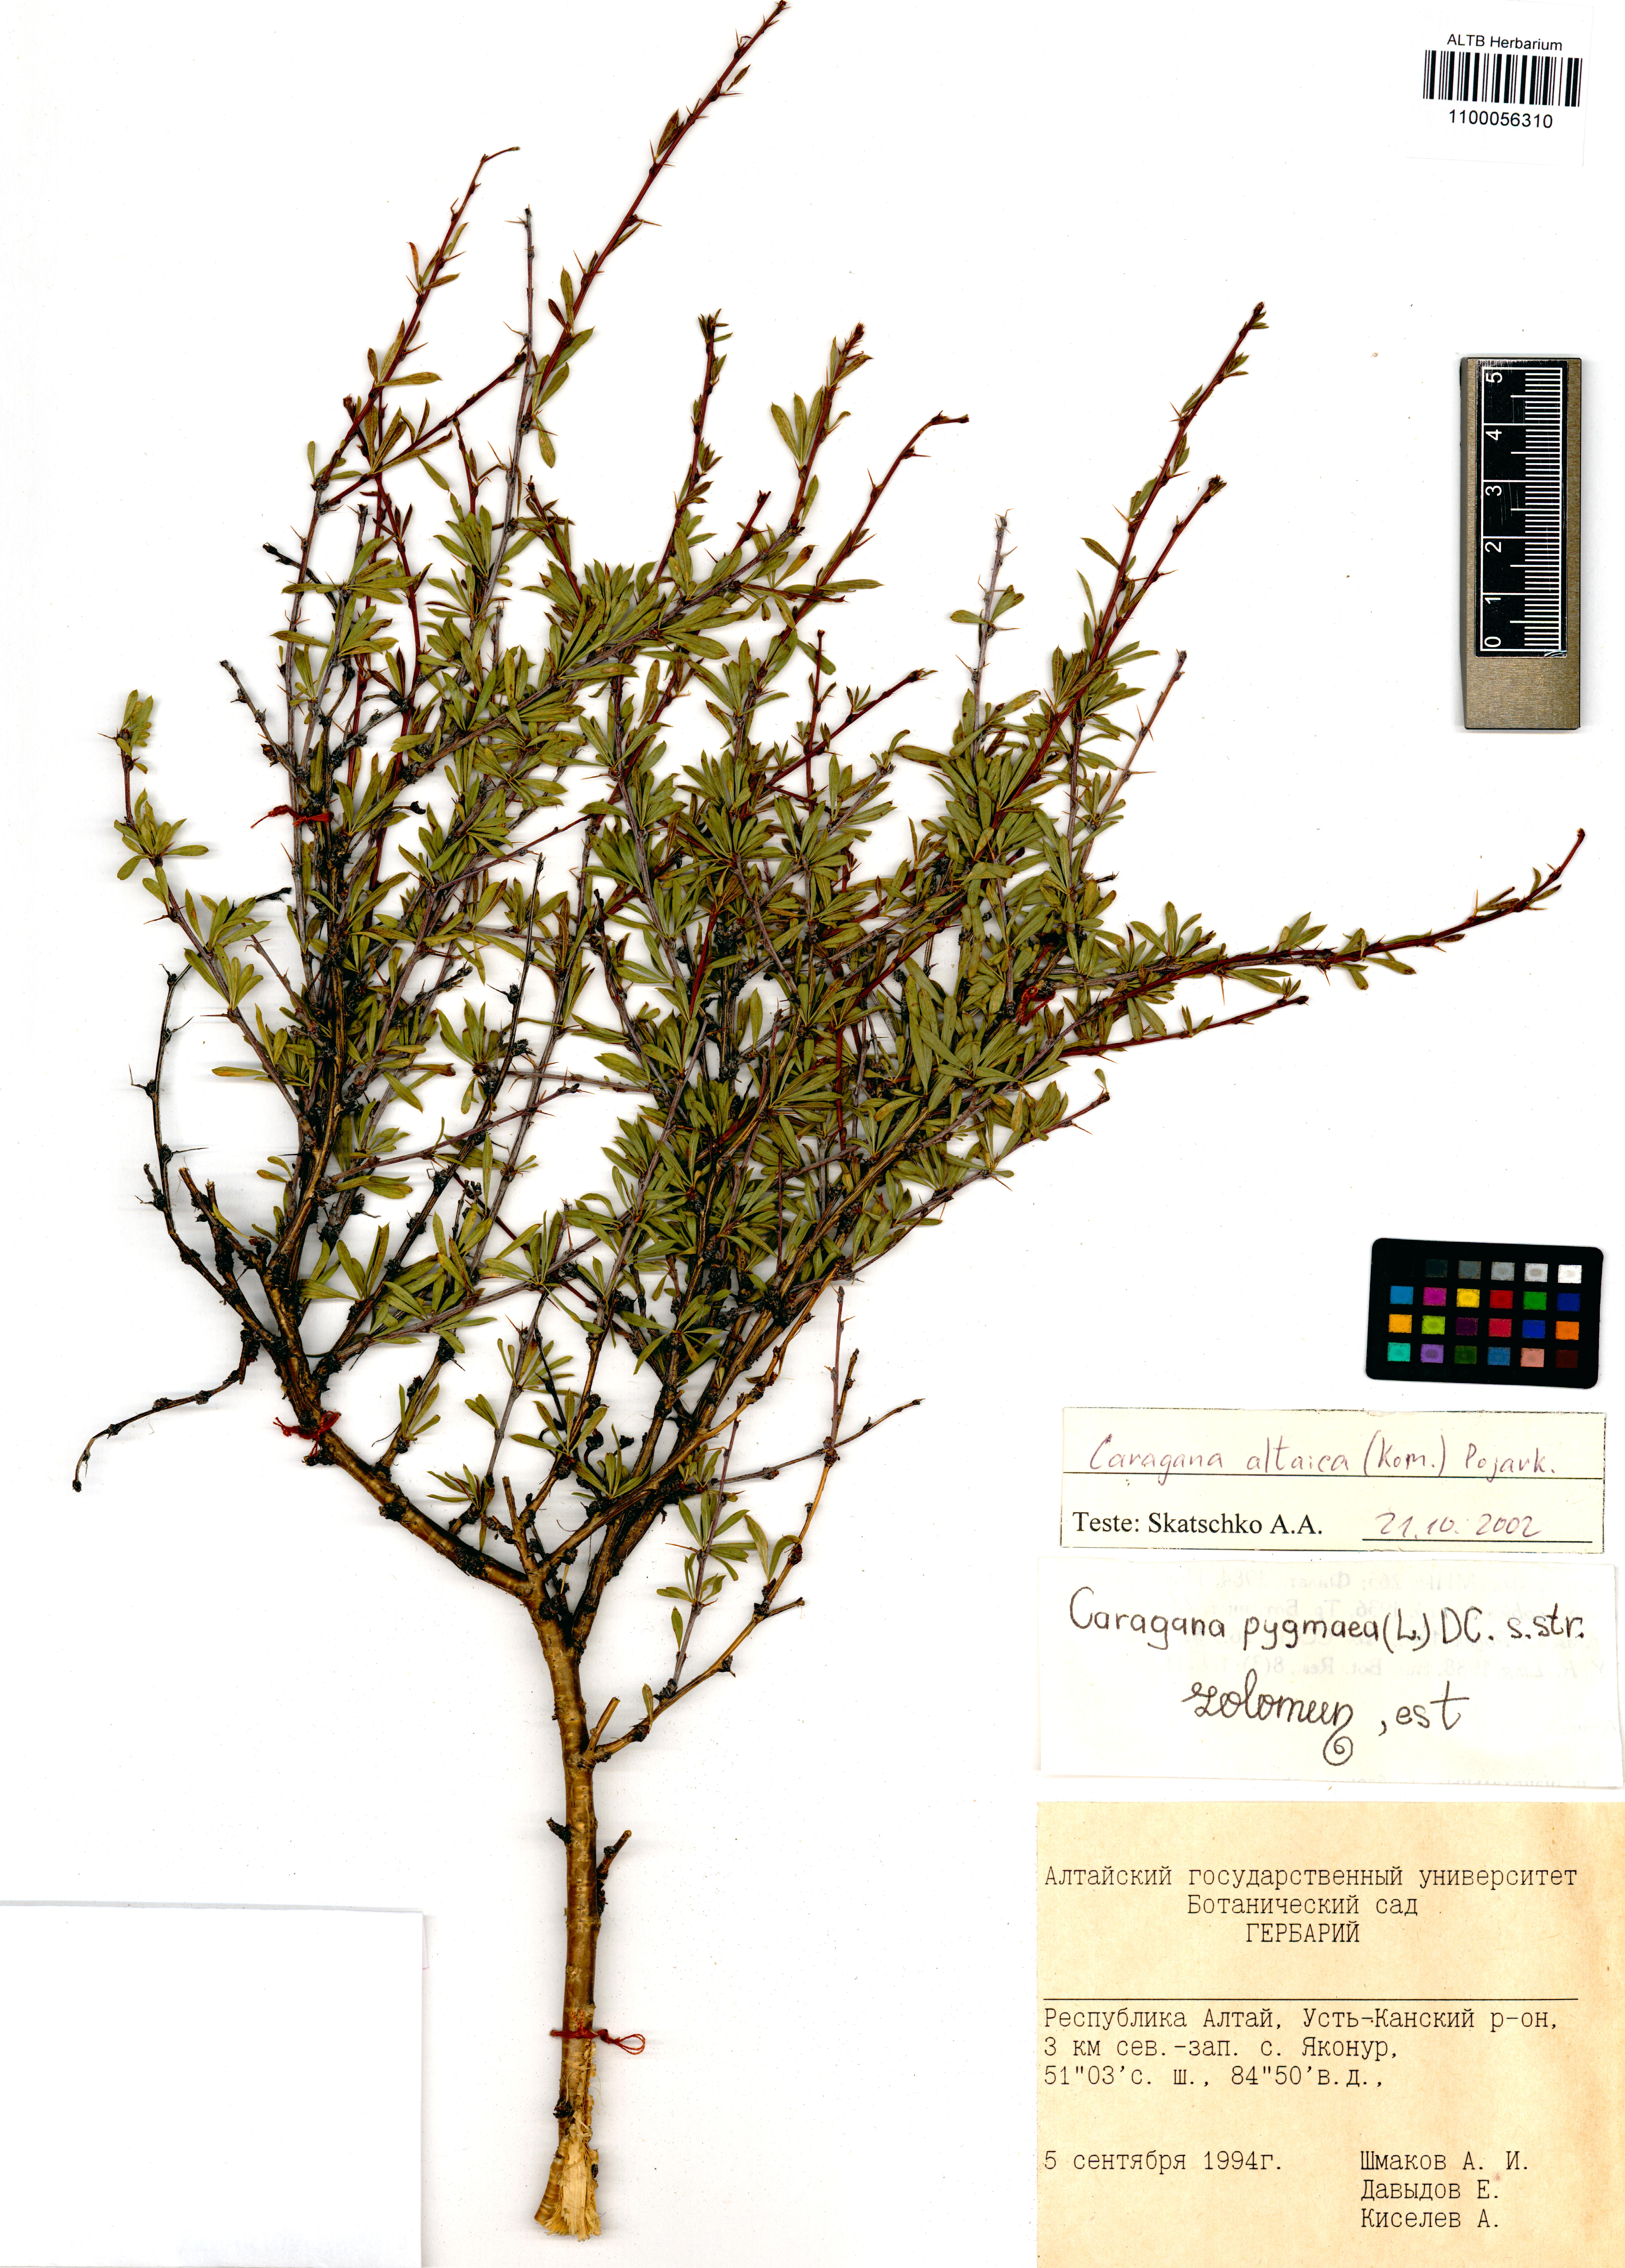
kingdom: Plantae
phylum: Tracheophyta
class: Magnoliopsida
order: Fabales
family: Fabaceae
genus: Caragana
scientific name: Caragana pygmaea
